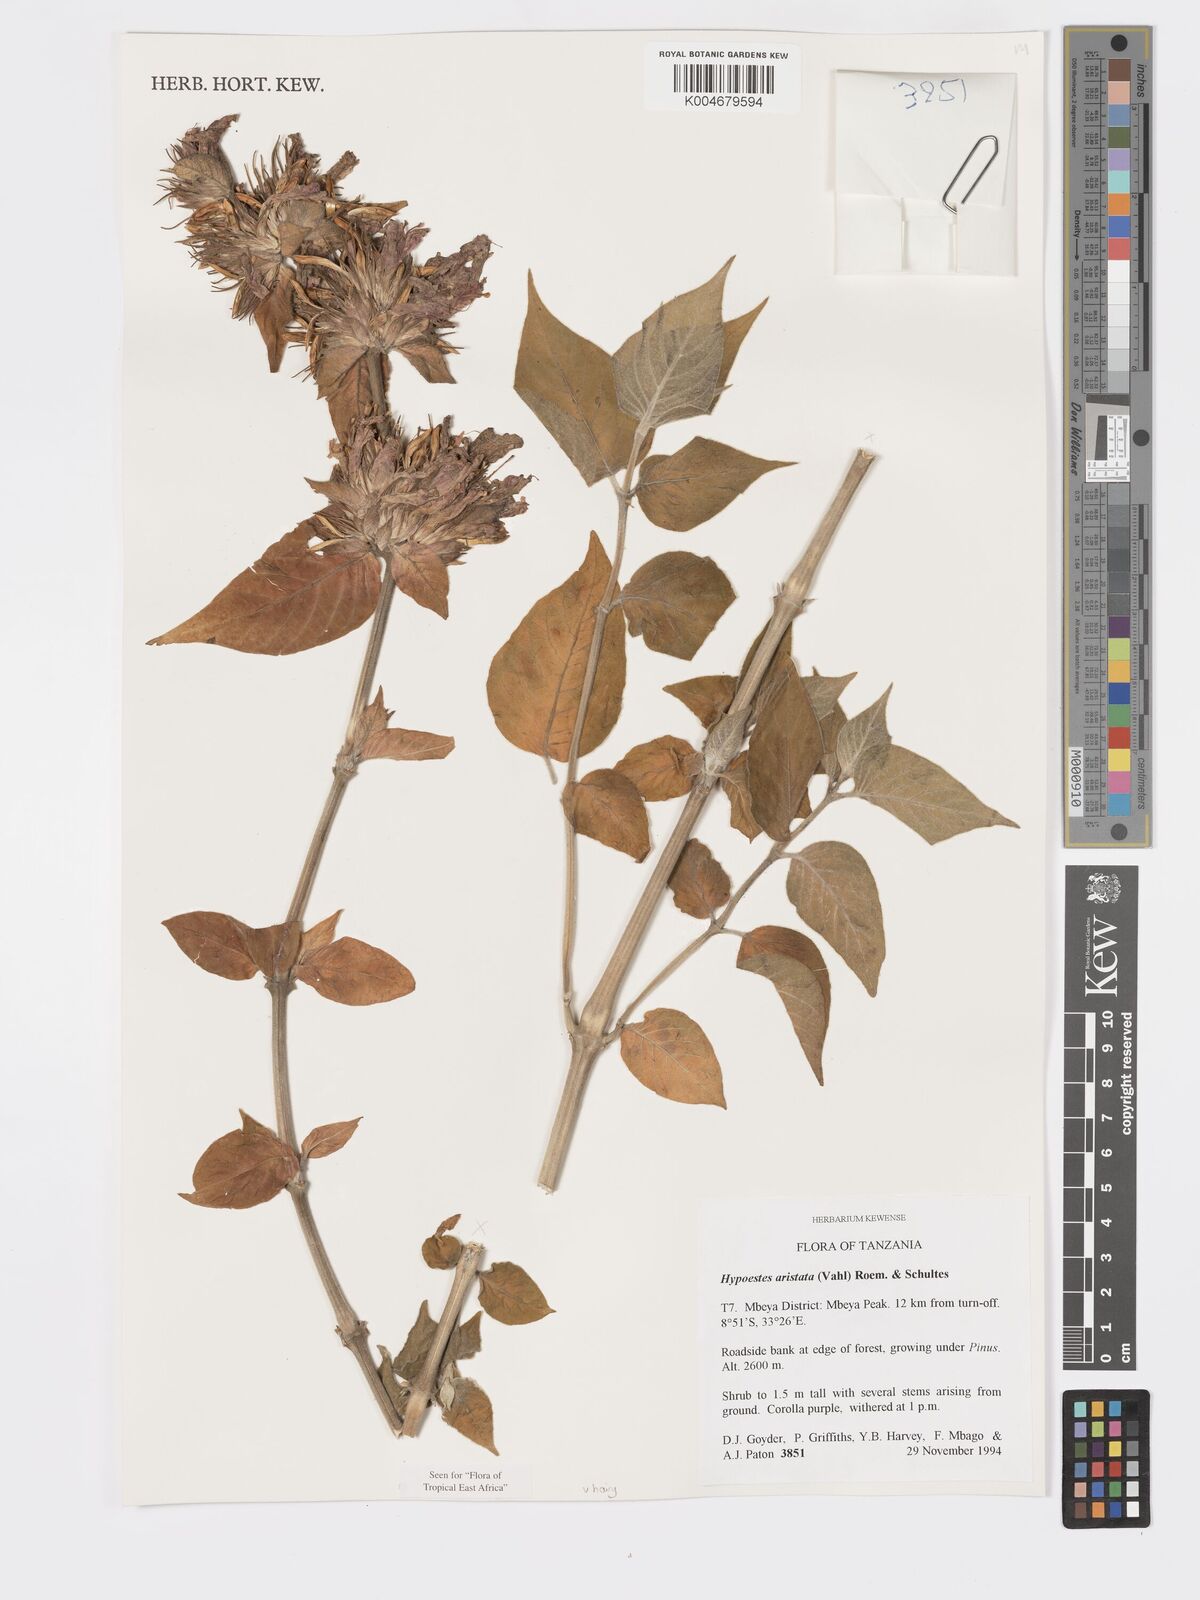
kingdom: Plantae
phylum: Tracheophyta
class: Magnoliopsida
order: Lamiales
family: Acanthaceae
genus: Hypoestes
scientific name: Hypoestes aristata
